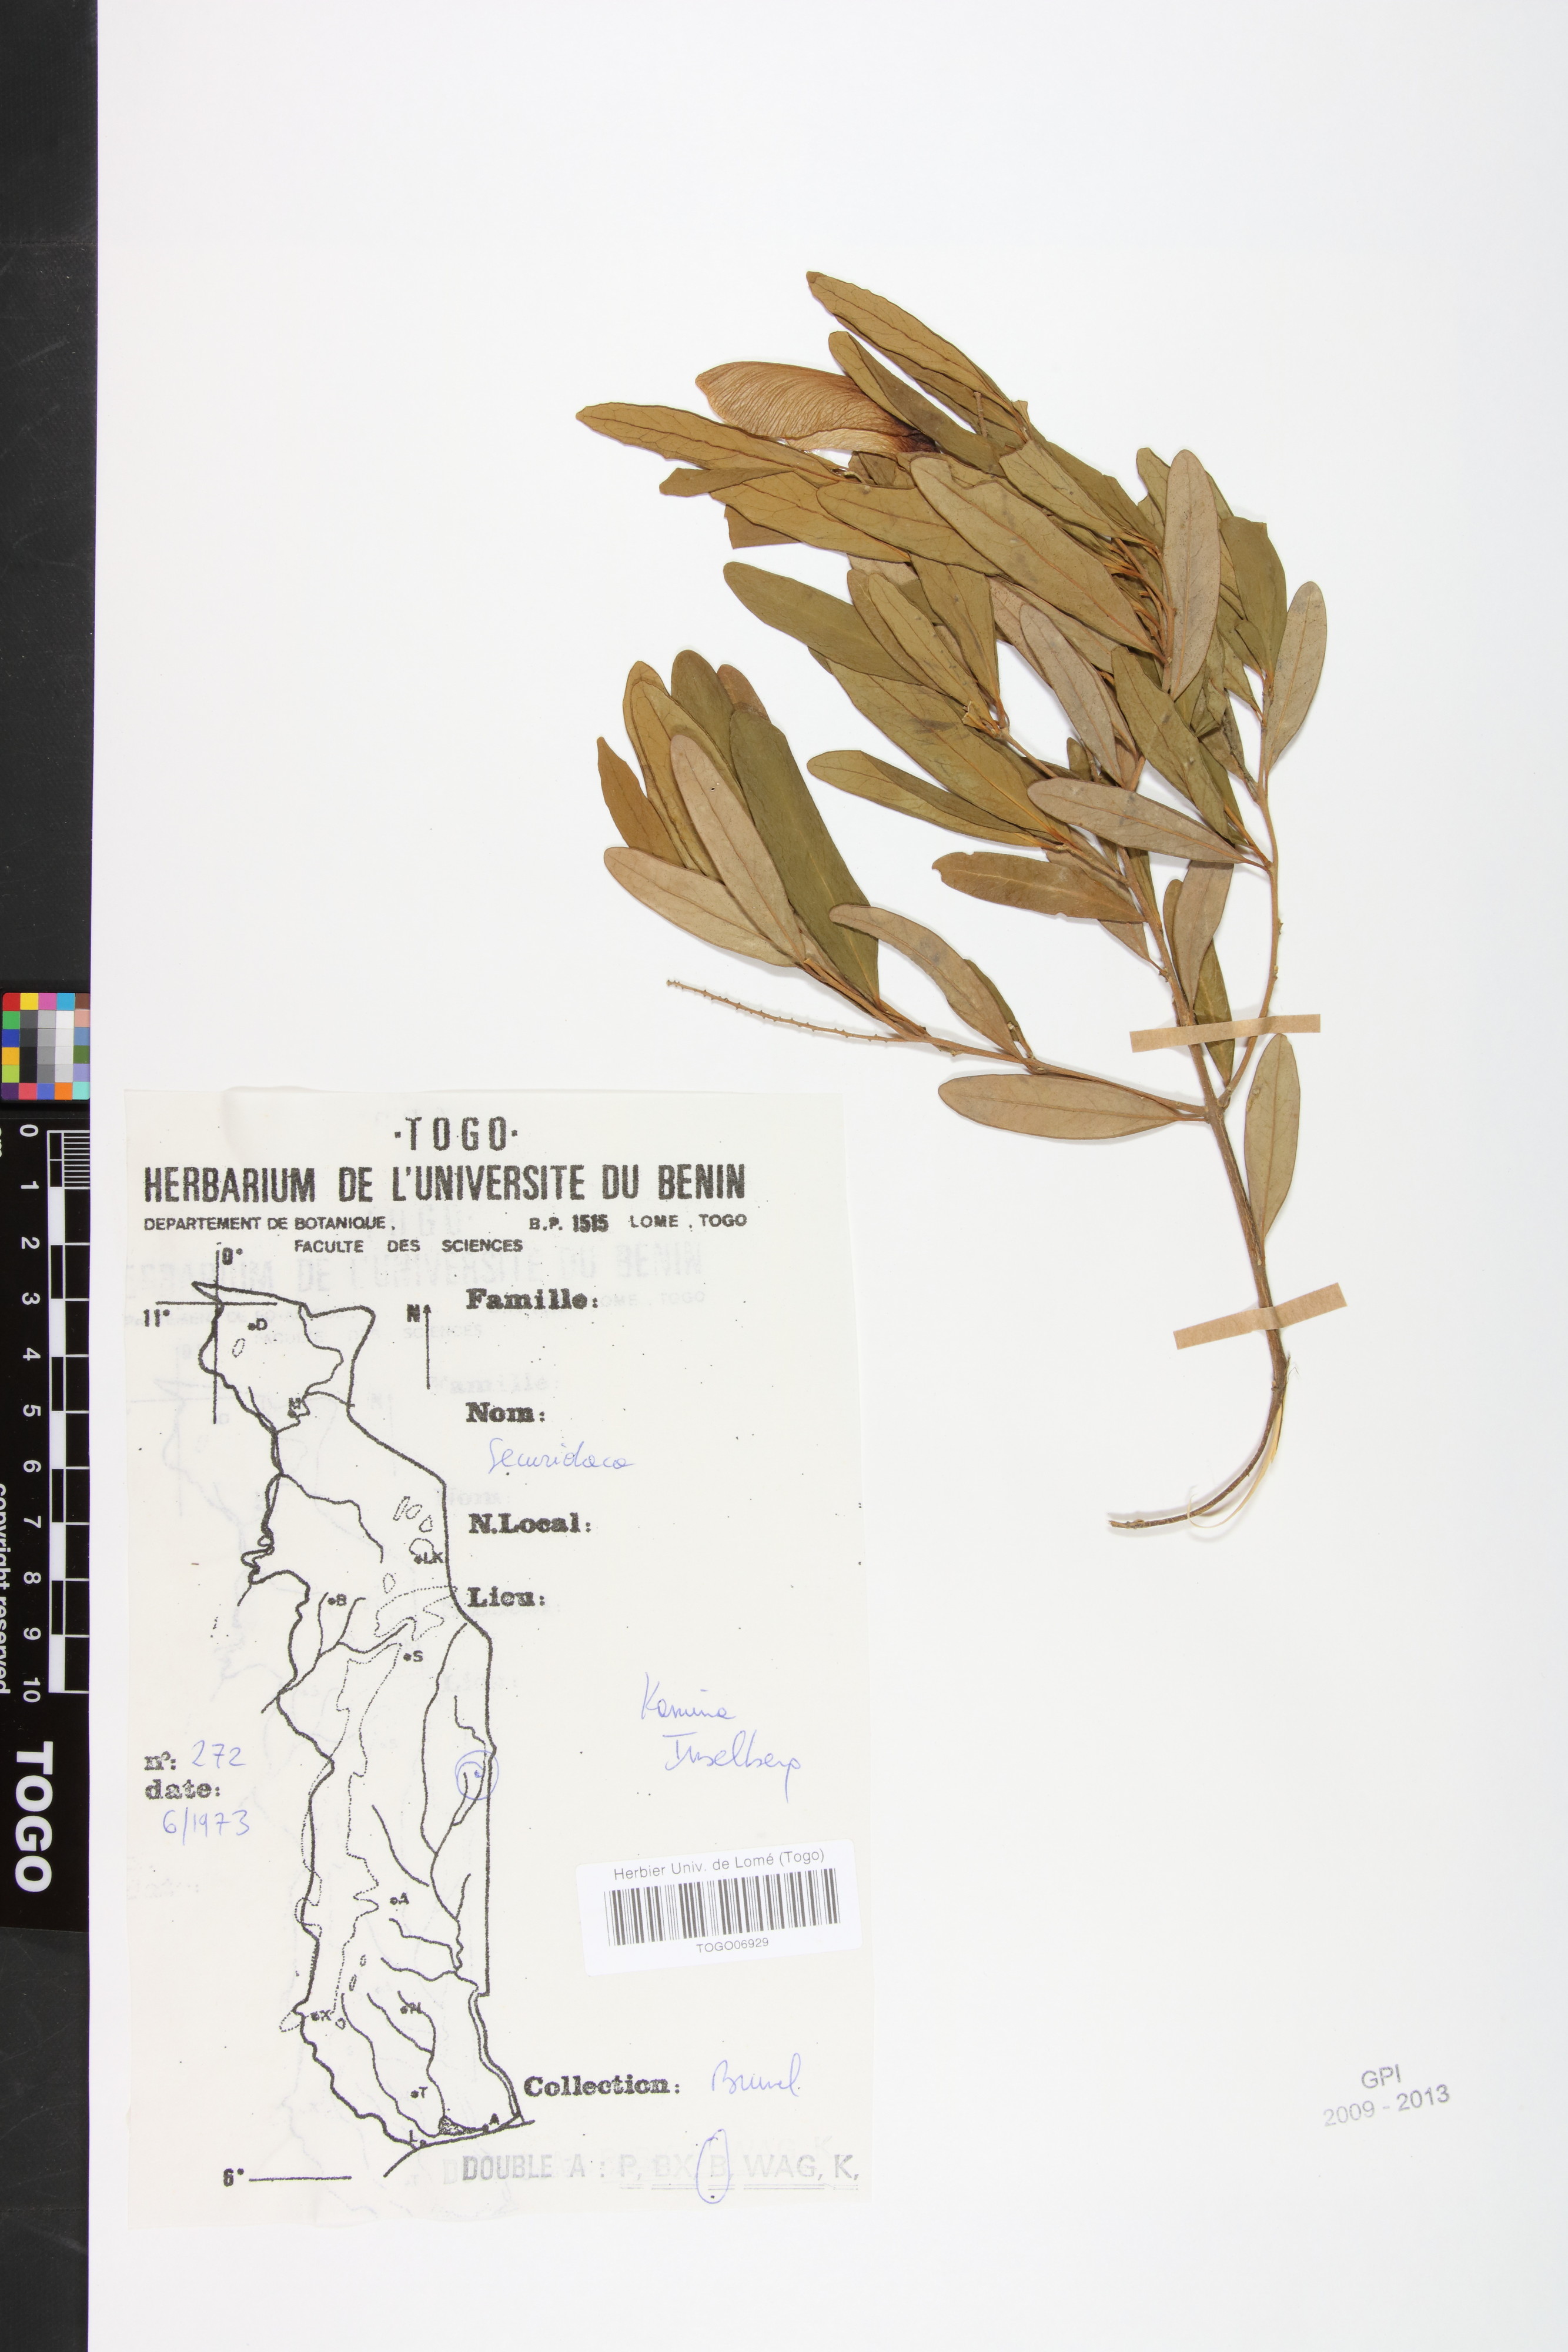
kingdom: Plantae
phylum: Tracheophyta
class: Magnoliopsida
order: Fabales
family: Polygalaceae
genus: Securidaca
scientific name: Securidaca longepedunculata
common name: Violet tree
